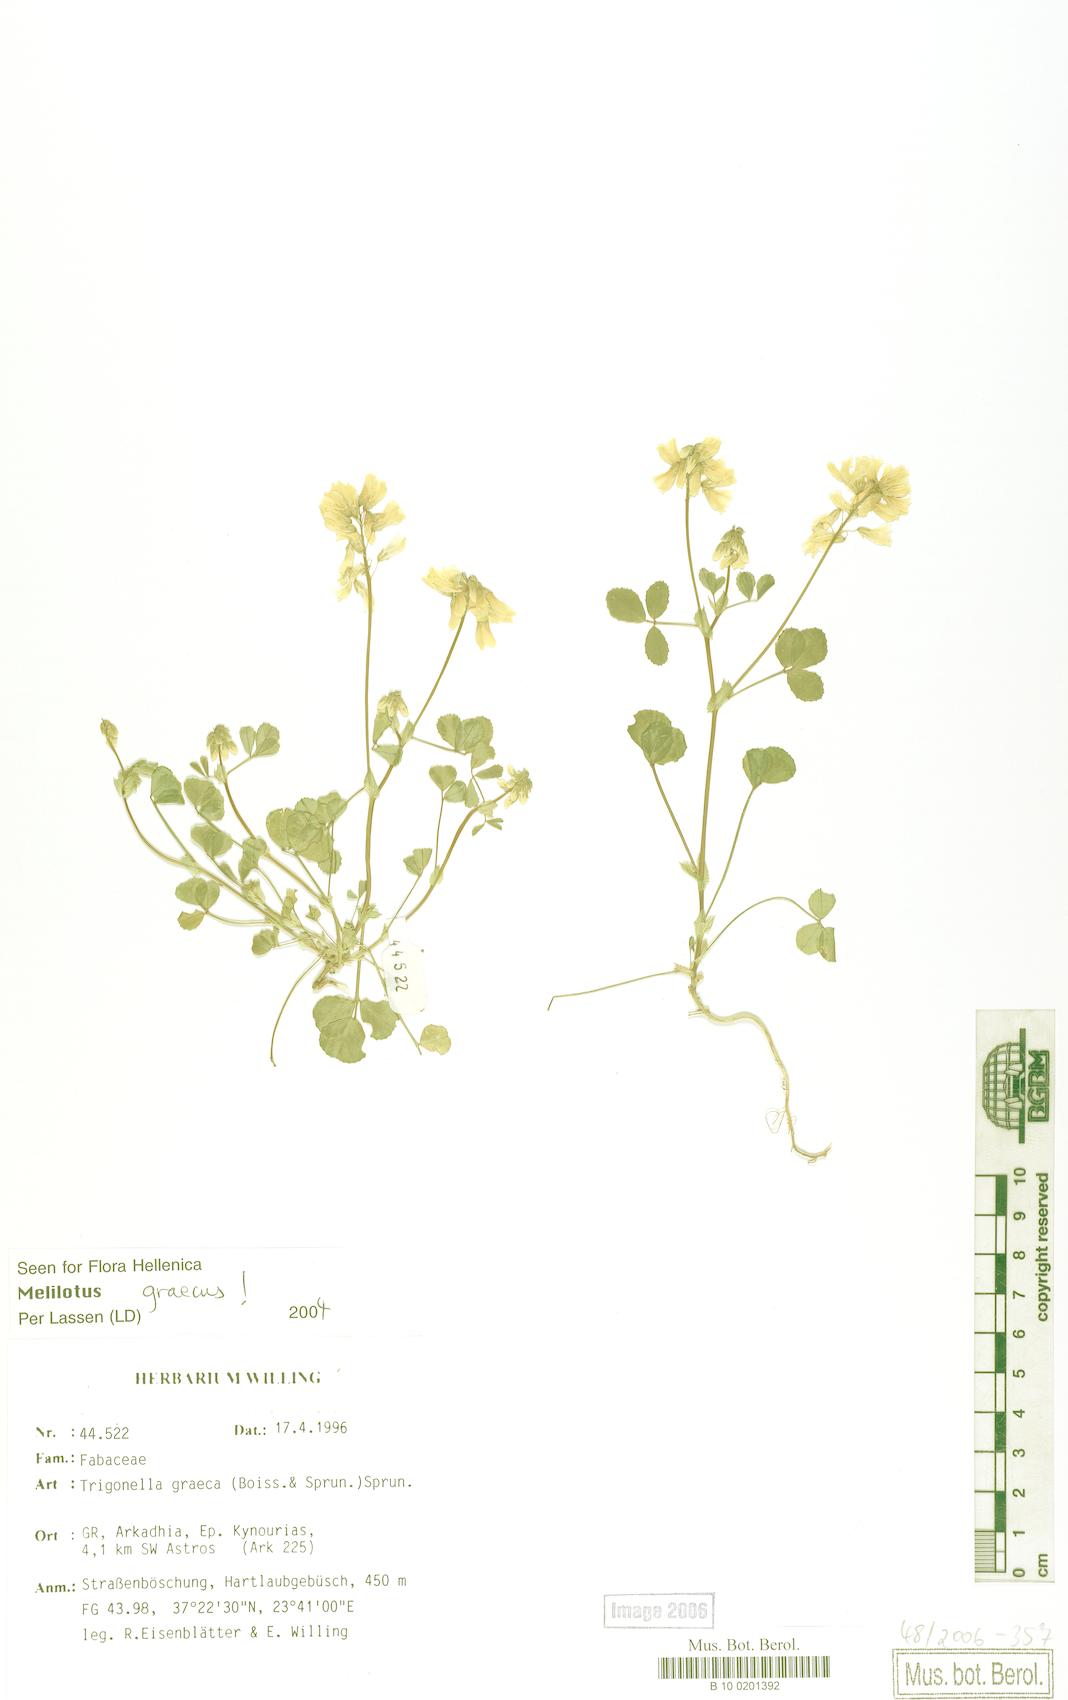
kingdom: Plantae
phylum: Tracheophyta
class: Magnoliopsida
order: Fabales
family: Fabaceae
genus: Trigonella
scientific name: Trigonella graeca
